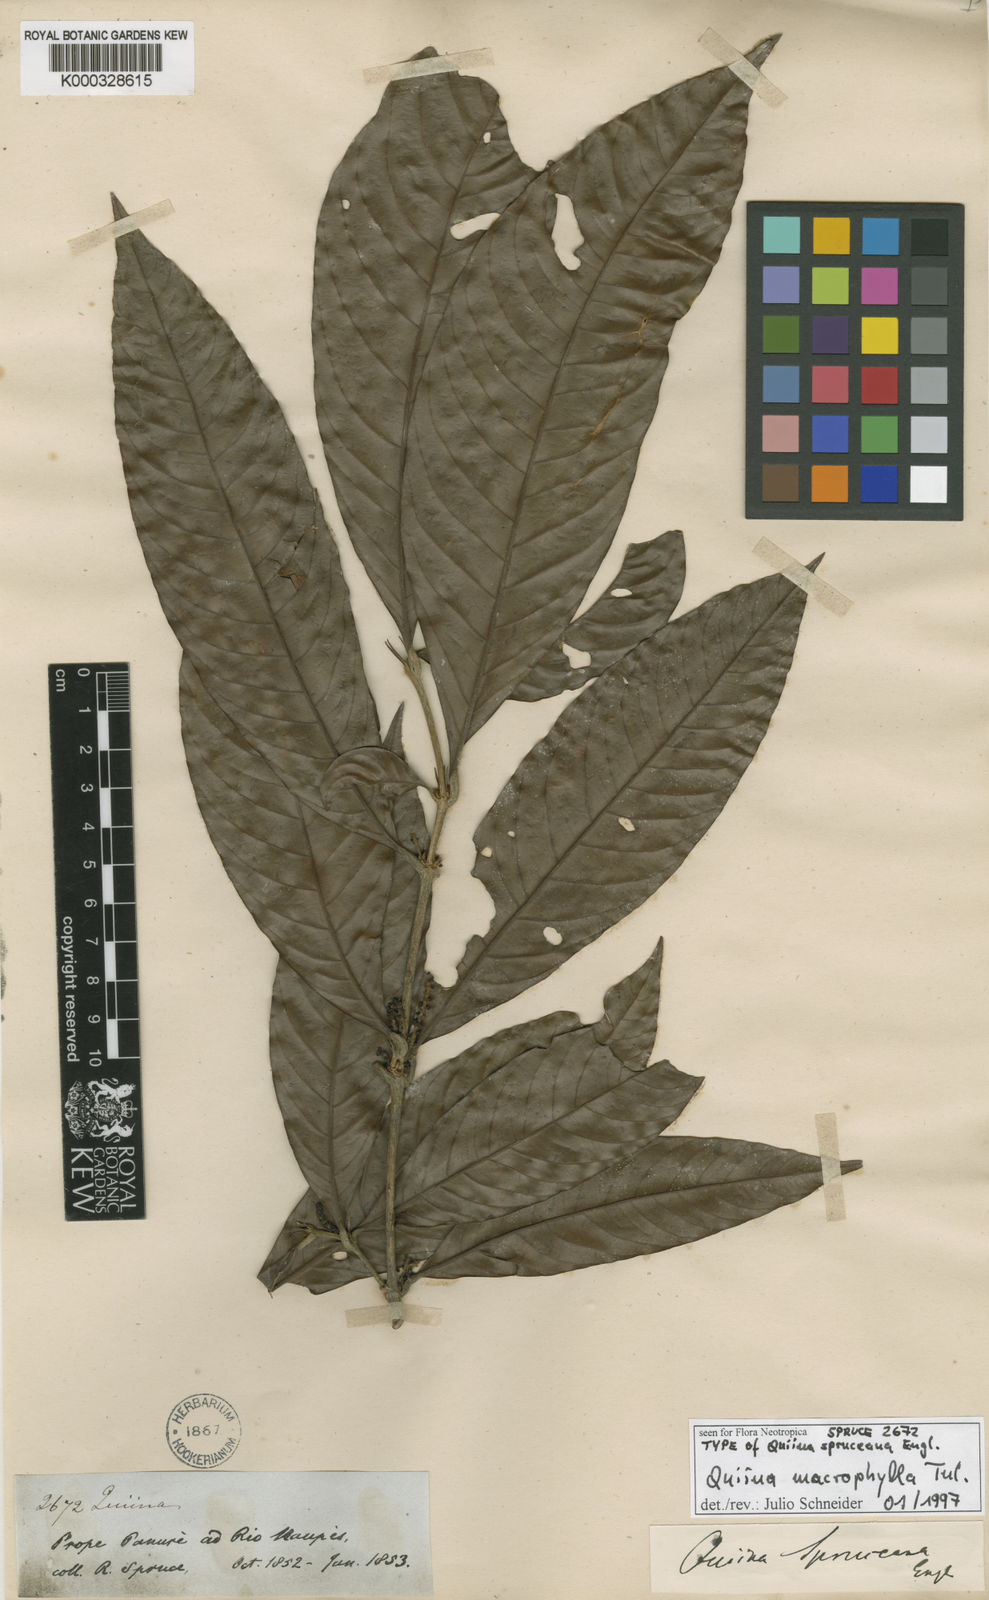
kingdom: Plantae
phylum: Tracheophyta
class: Magnoliopsida
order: Malpighiales
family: Quiinaceae
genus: Quiina
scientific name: Quiina macrophylla
